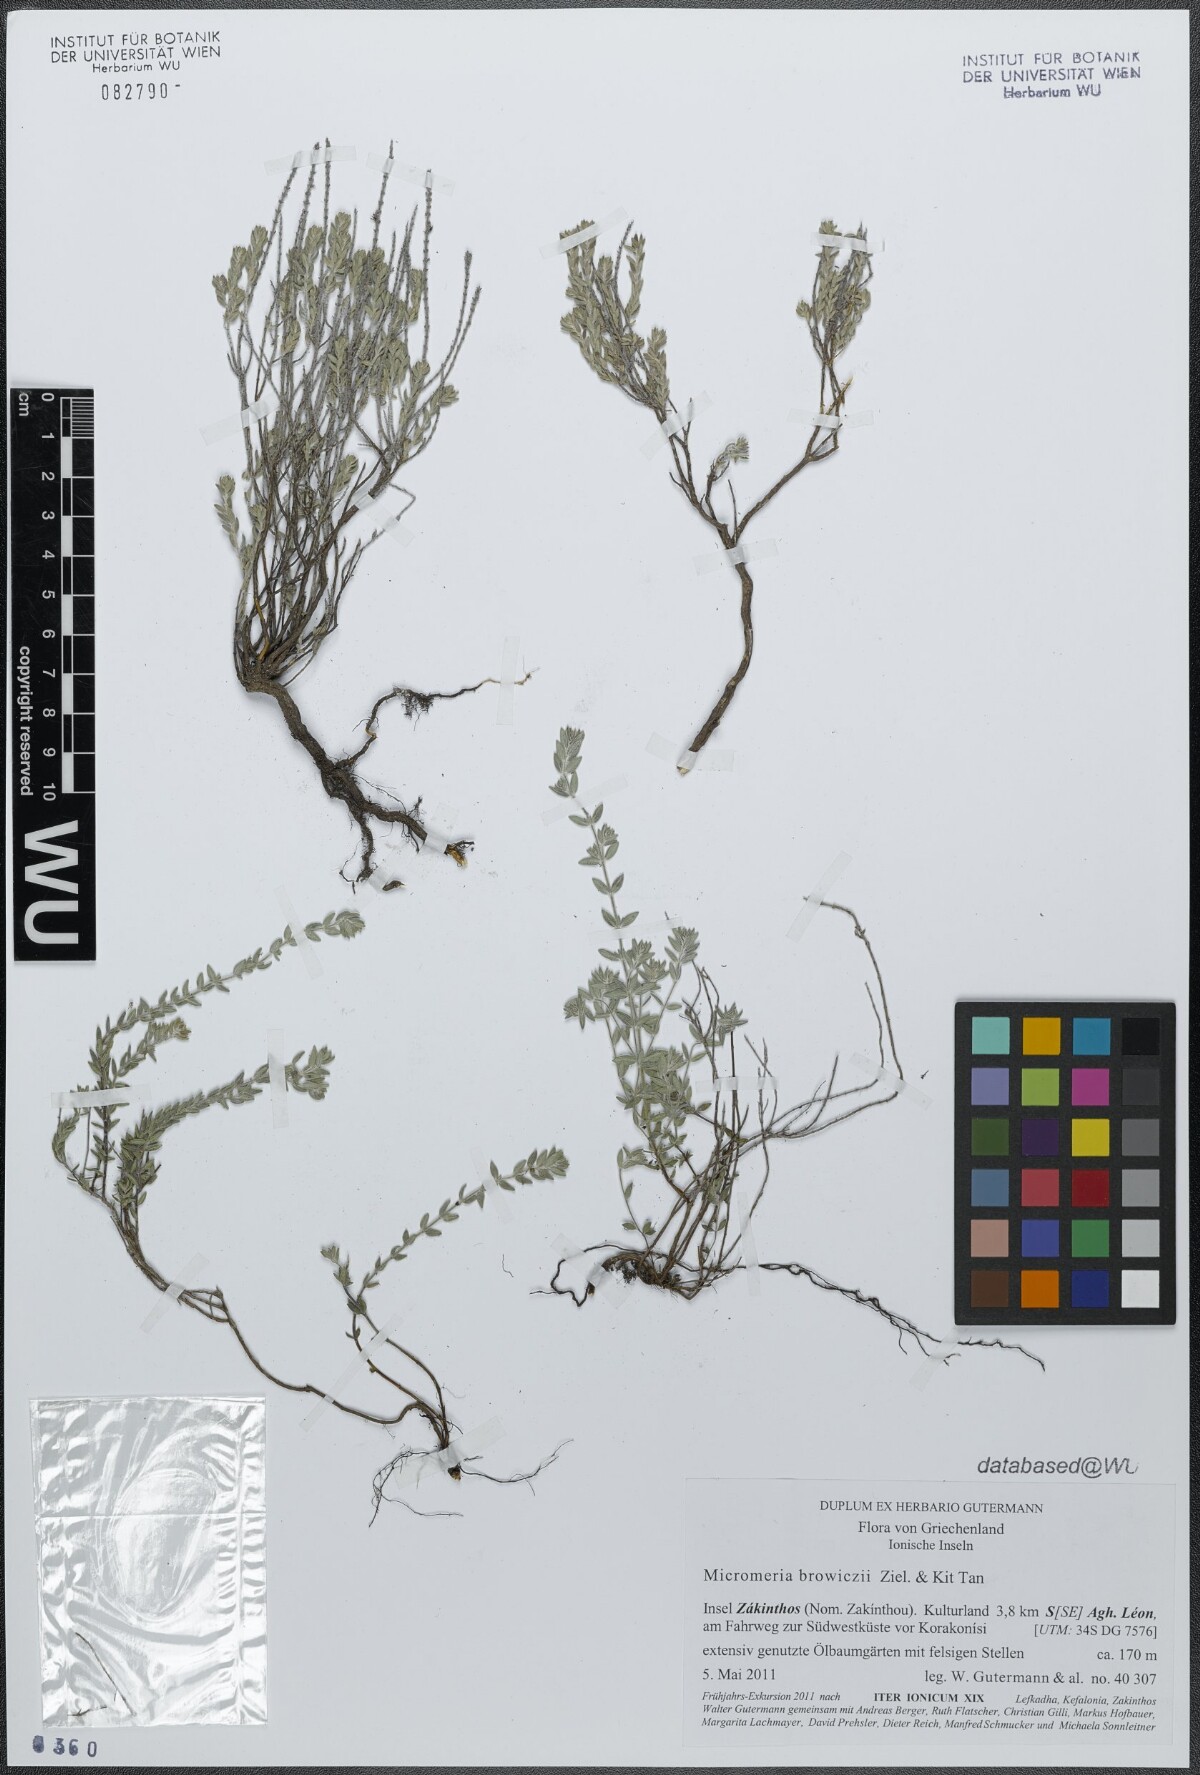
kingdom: Plantae
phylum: Tracheophyta
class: Magnoliopsida
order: Lamiales
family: Lamiaceae
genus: Micromeria
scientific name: Micromeria browiczii
